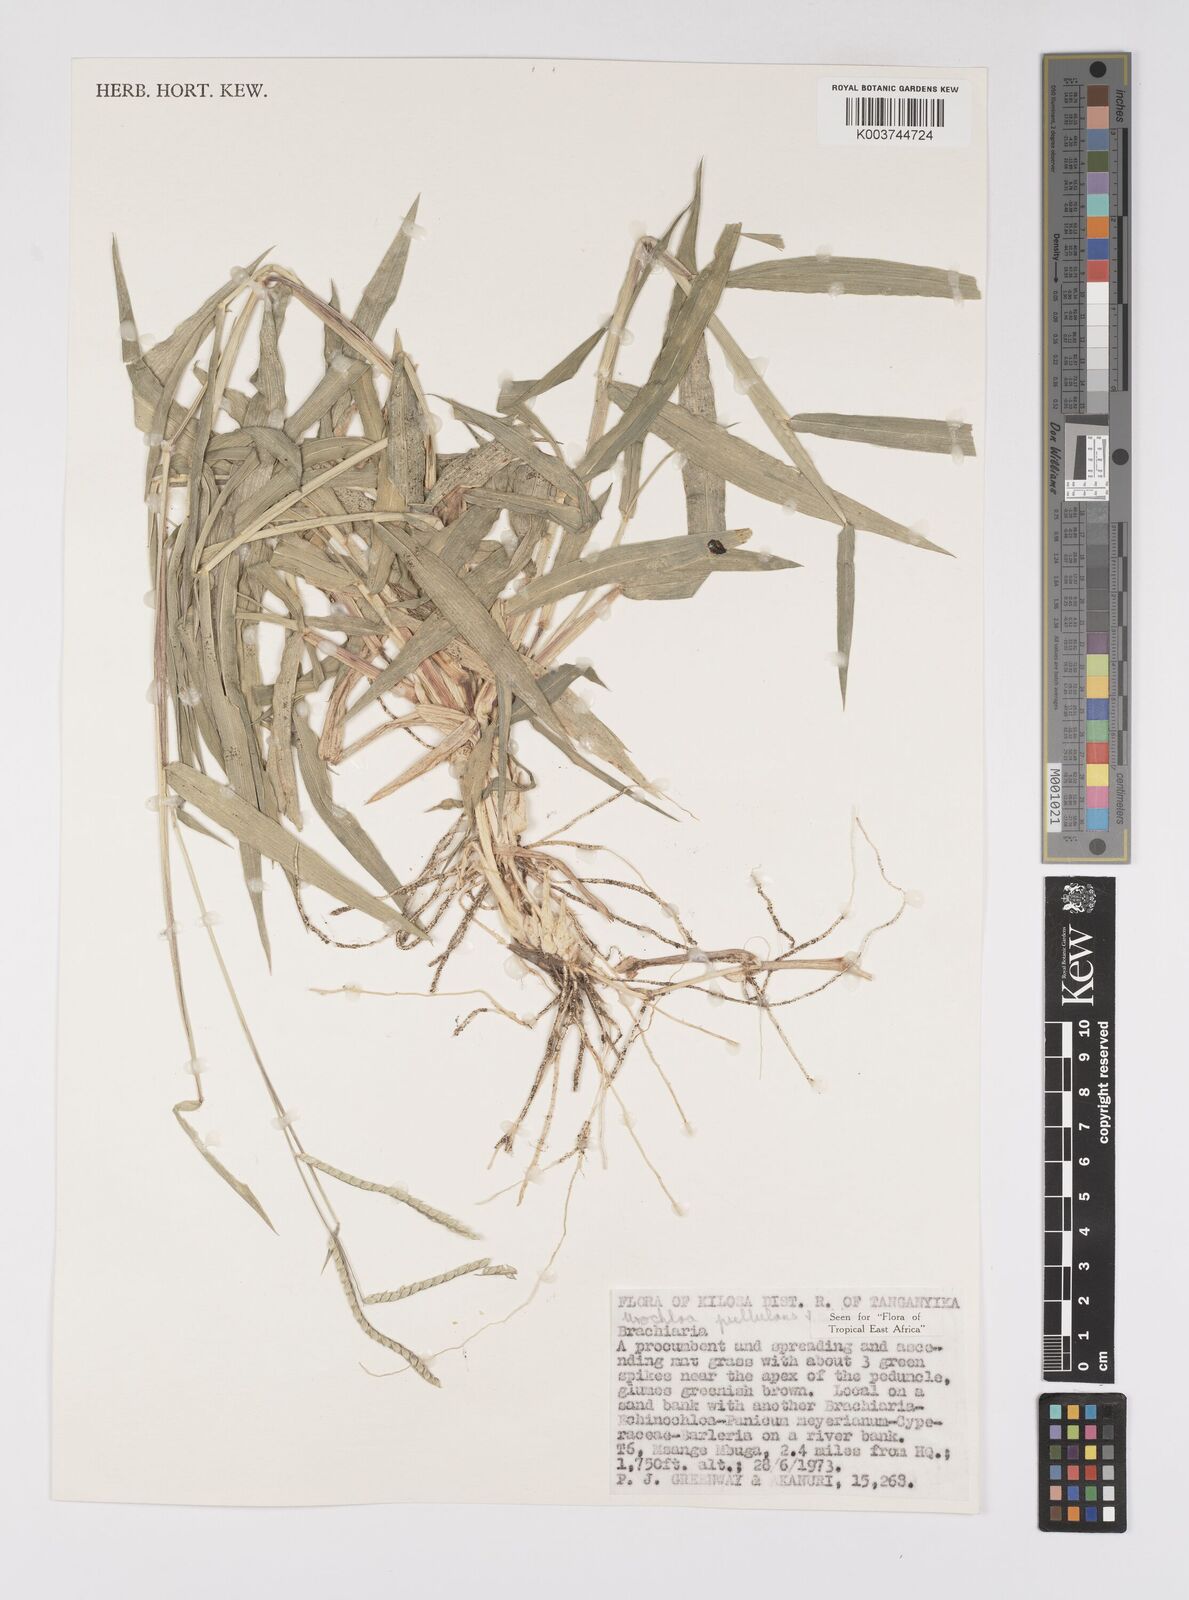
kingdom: Plantae
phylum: Tracheophyta
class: Liliopsida
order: Poales
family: Poaceae
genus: Urochloa
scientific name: Urochloa trichopus
